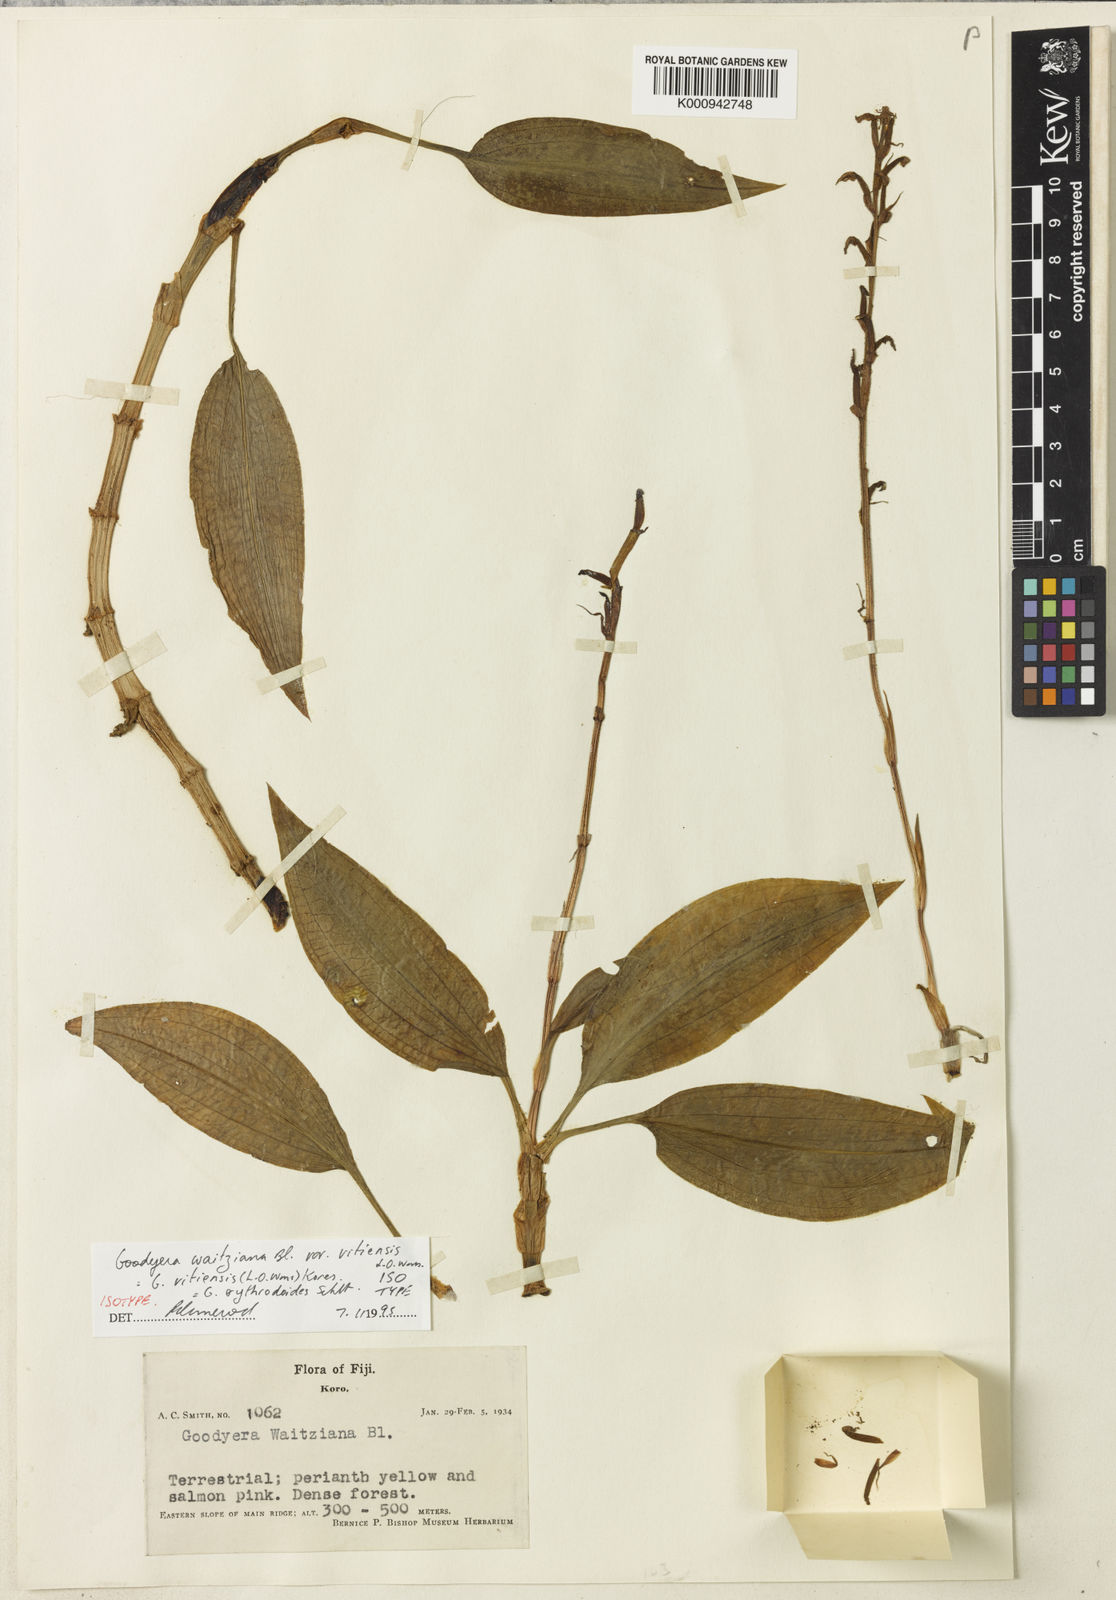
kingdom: Plantae
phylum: Tracheophyta
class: Liliopsida
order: Asparagales
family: Orchidaceae
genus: Goodyera
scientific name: Goodyera erythrodoides
